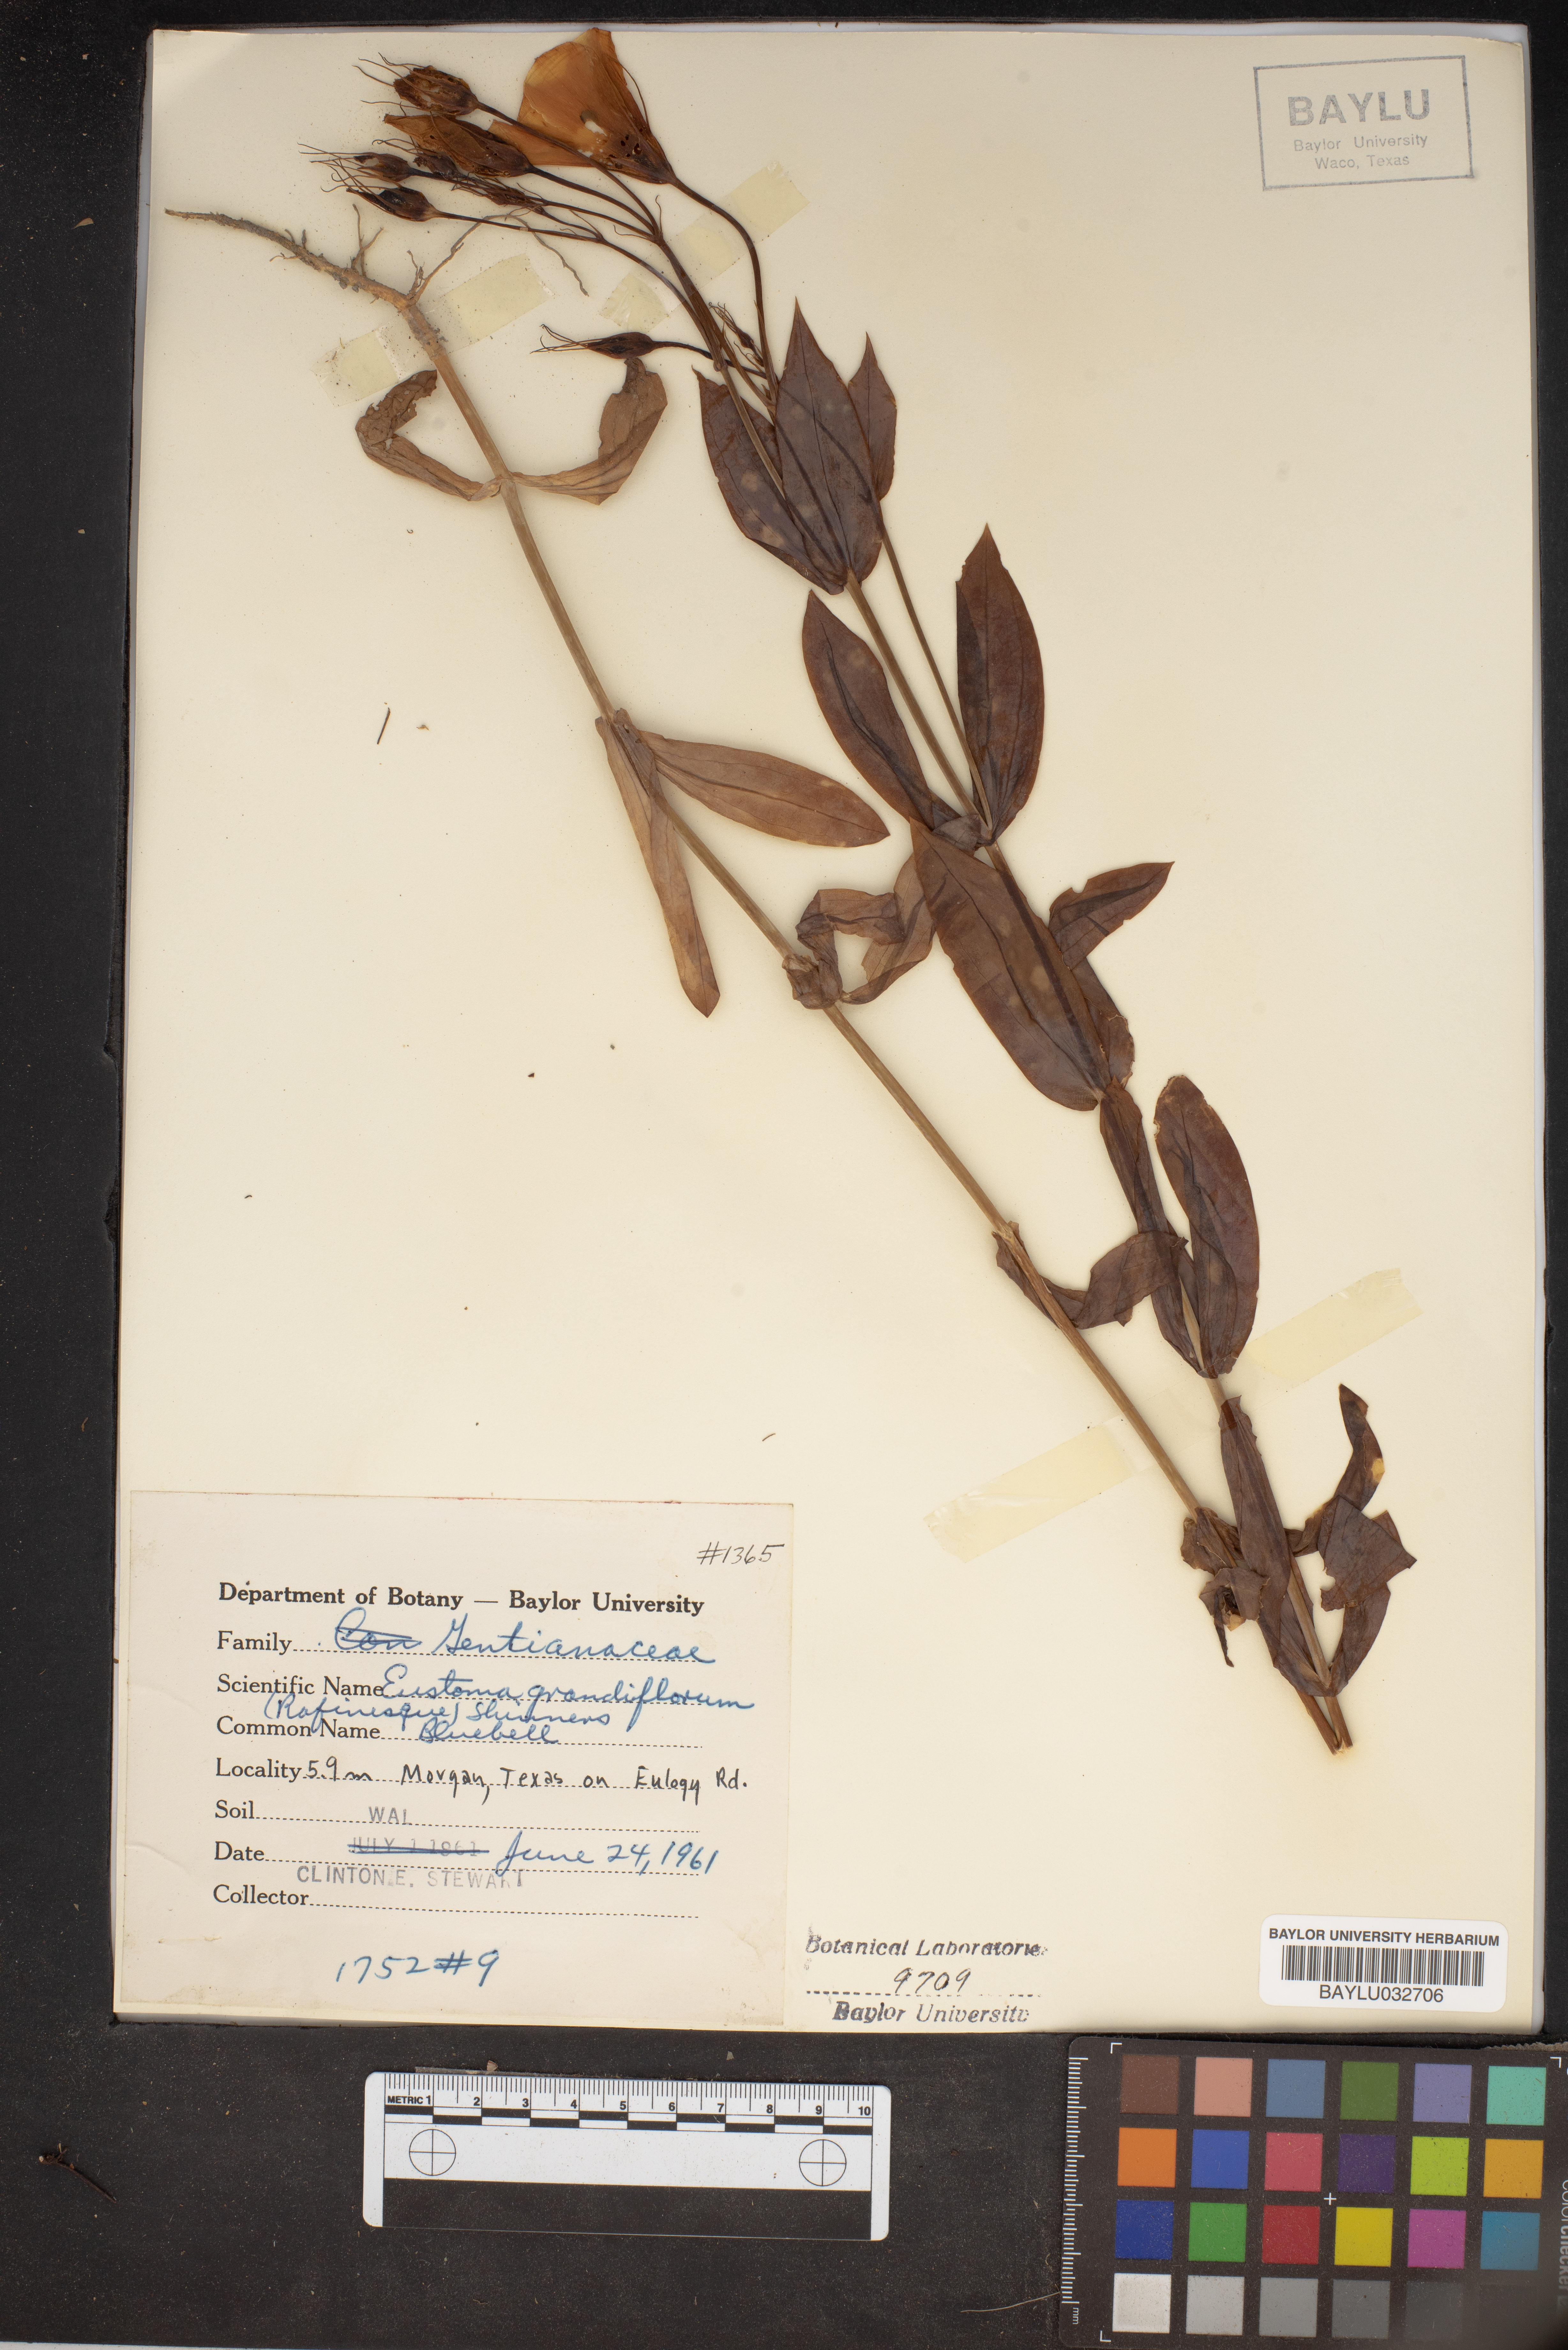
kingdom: Plantae
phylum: Tracheophyta
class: Magnoliopsida
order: Gentianales
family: Gentianaceae
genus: Eustoma
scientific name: Eustoma russellianum
